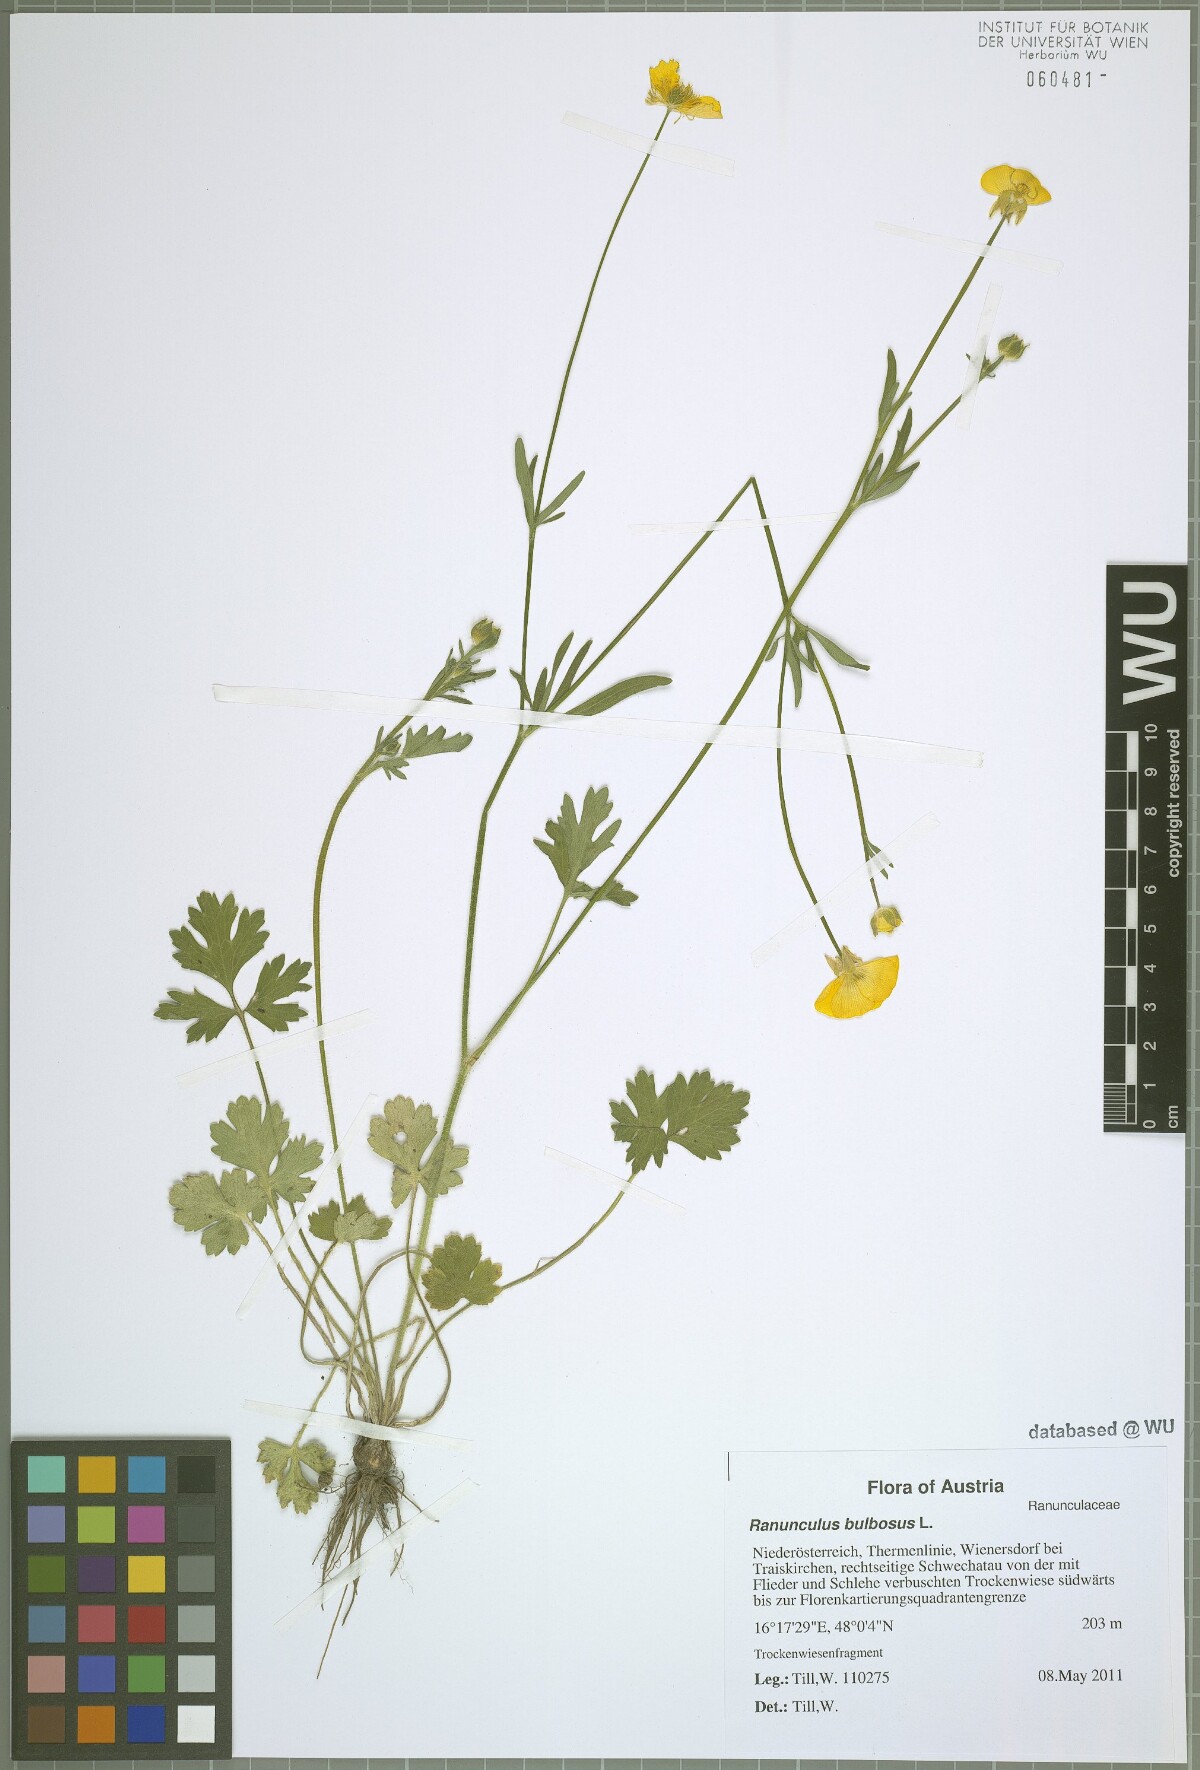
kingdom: Plantae
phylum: Tracheophyta
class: Magnoliopsida
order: Ranunculales
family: Ranunculaceae
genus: Ranunculus
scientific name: Ranunculus bulbosus
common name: Bulbous buttercup
